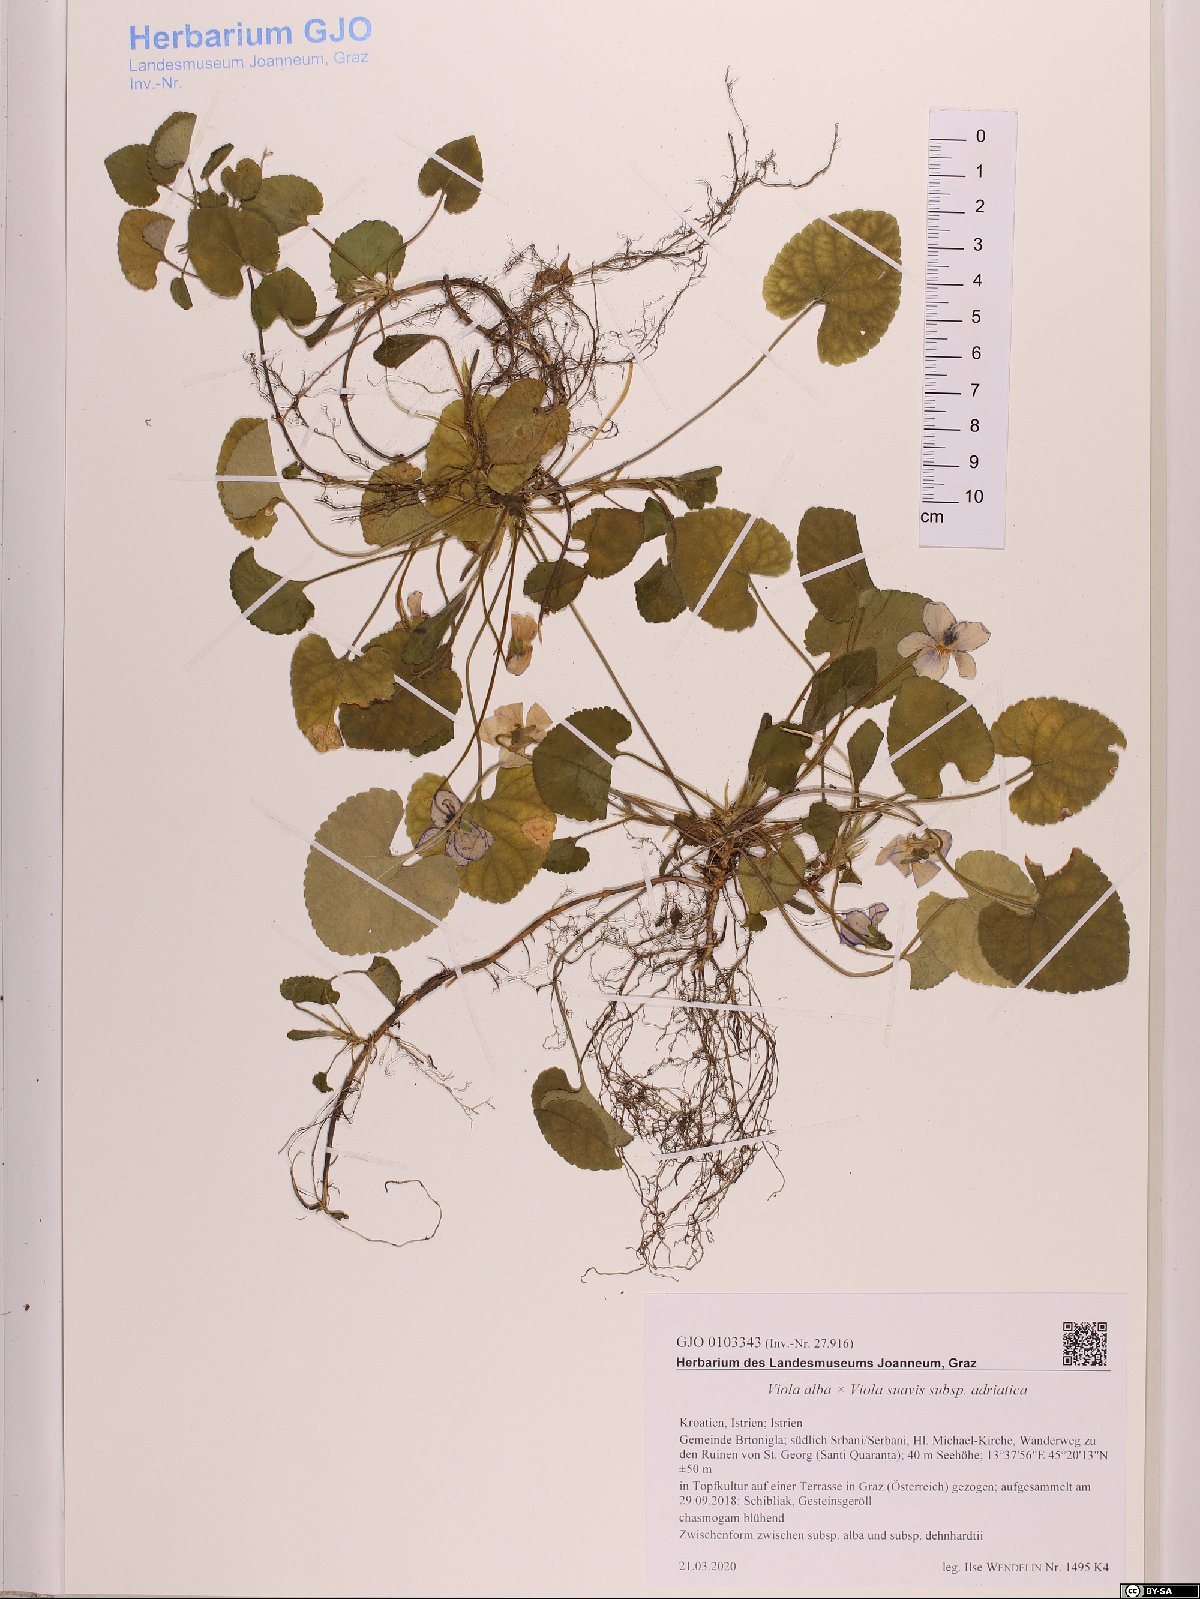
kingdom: Plantae
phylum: Tracheophyta
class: Magnoliopsida
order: Malpighiales
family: Violaceae
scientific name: Violaceae
